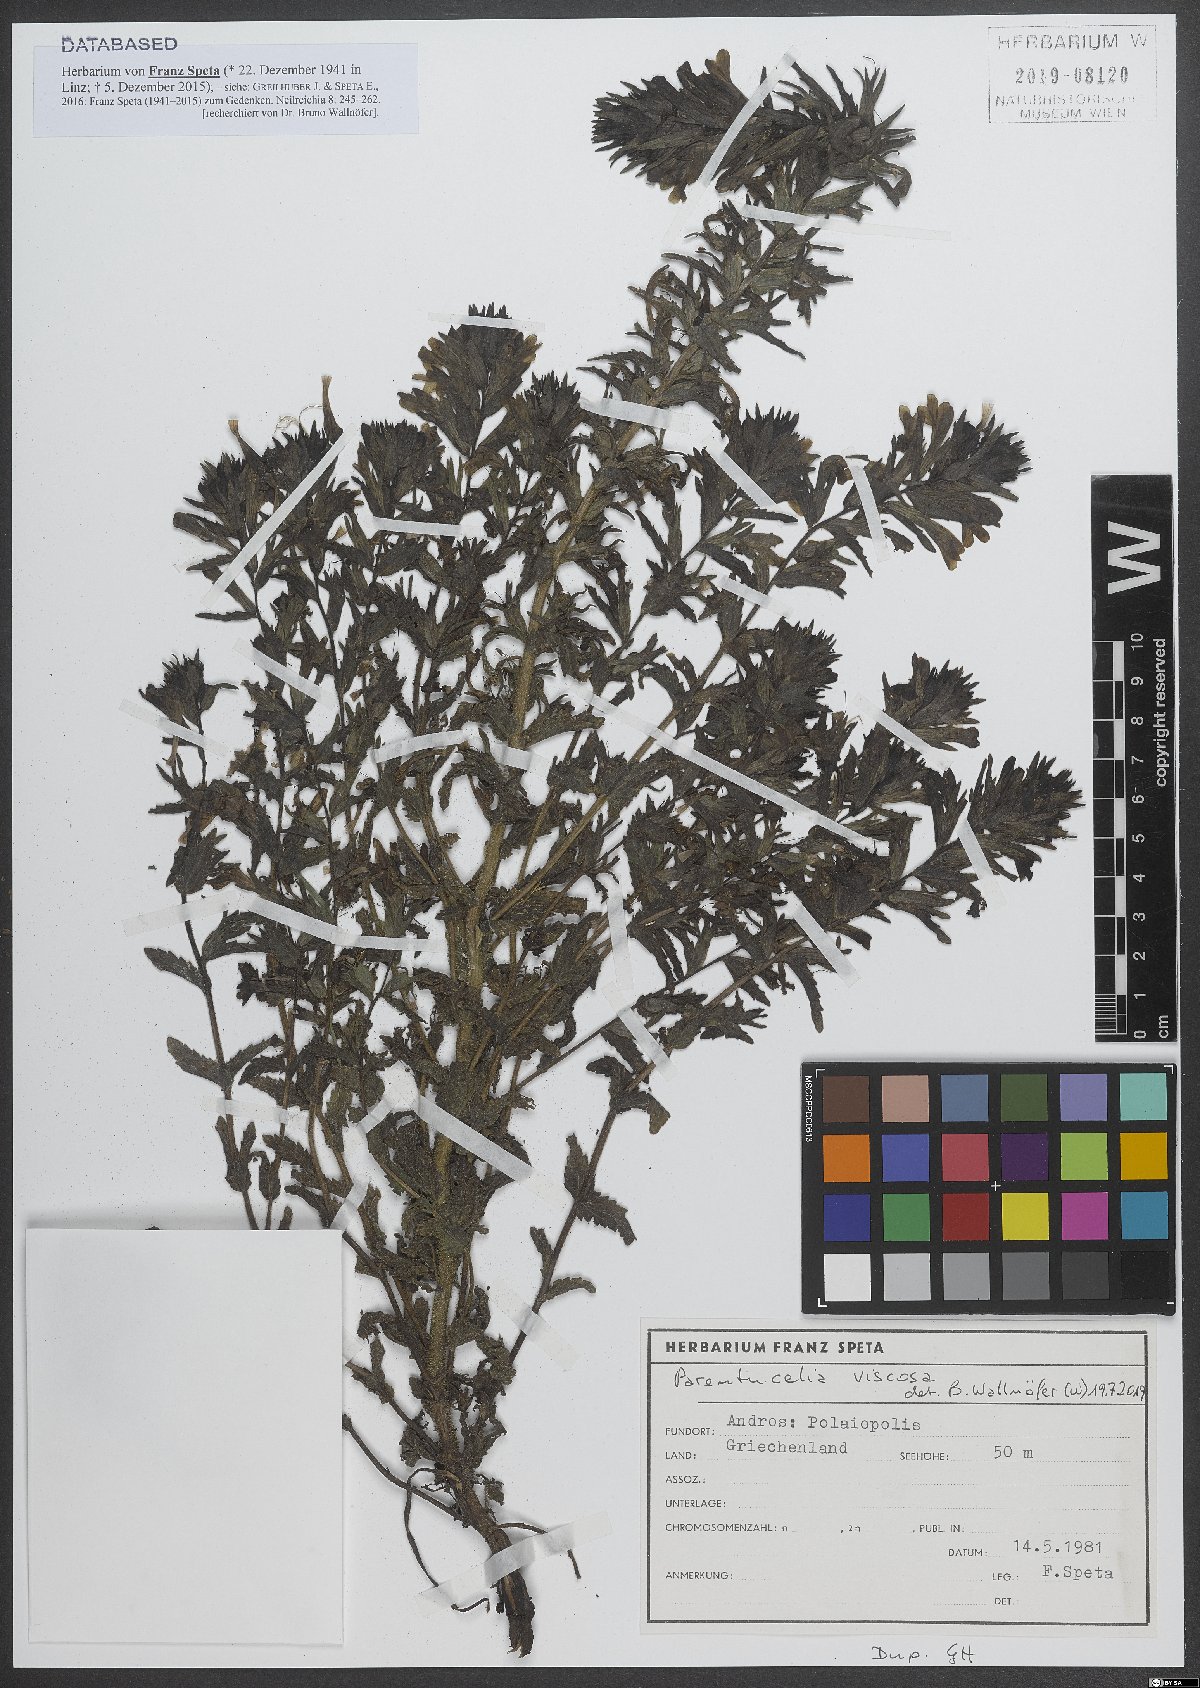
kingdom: Plantae
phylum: Tracheophyta
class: Magnoliopsida
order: Lamiales
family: Orobanchaceae
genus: Bellardia
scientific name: Bellardia viscosa
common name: Sticky parentucellia
